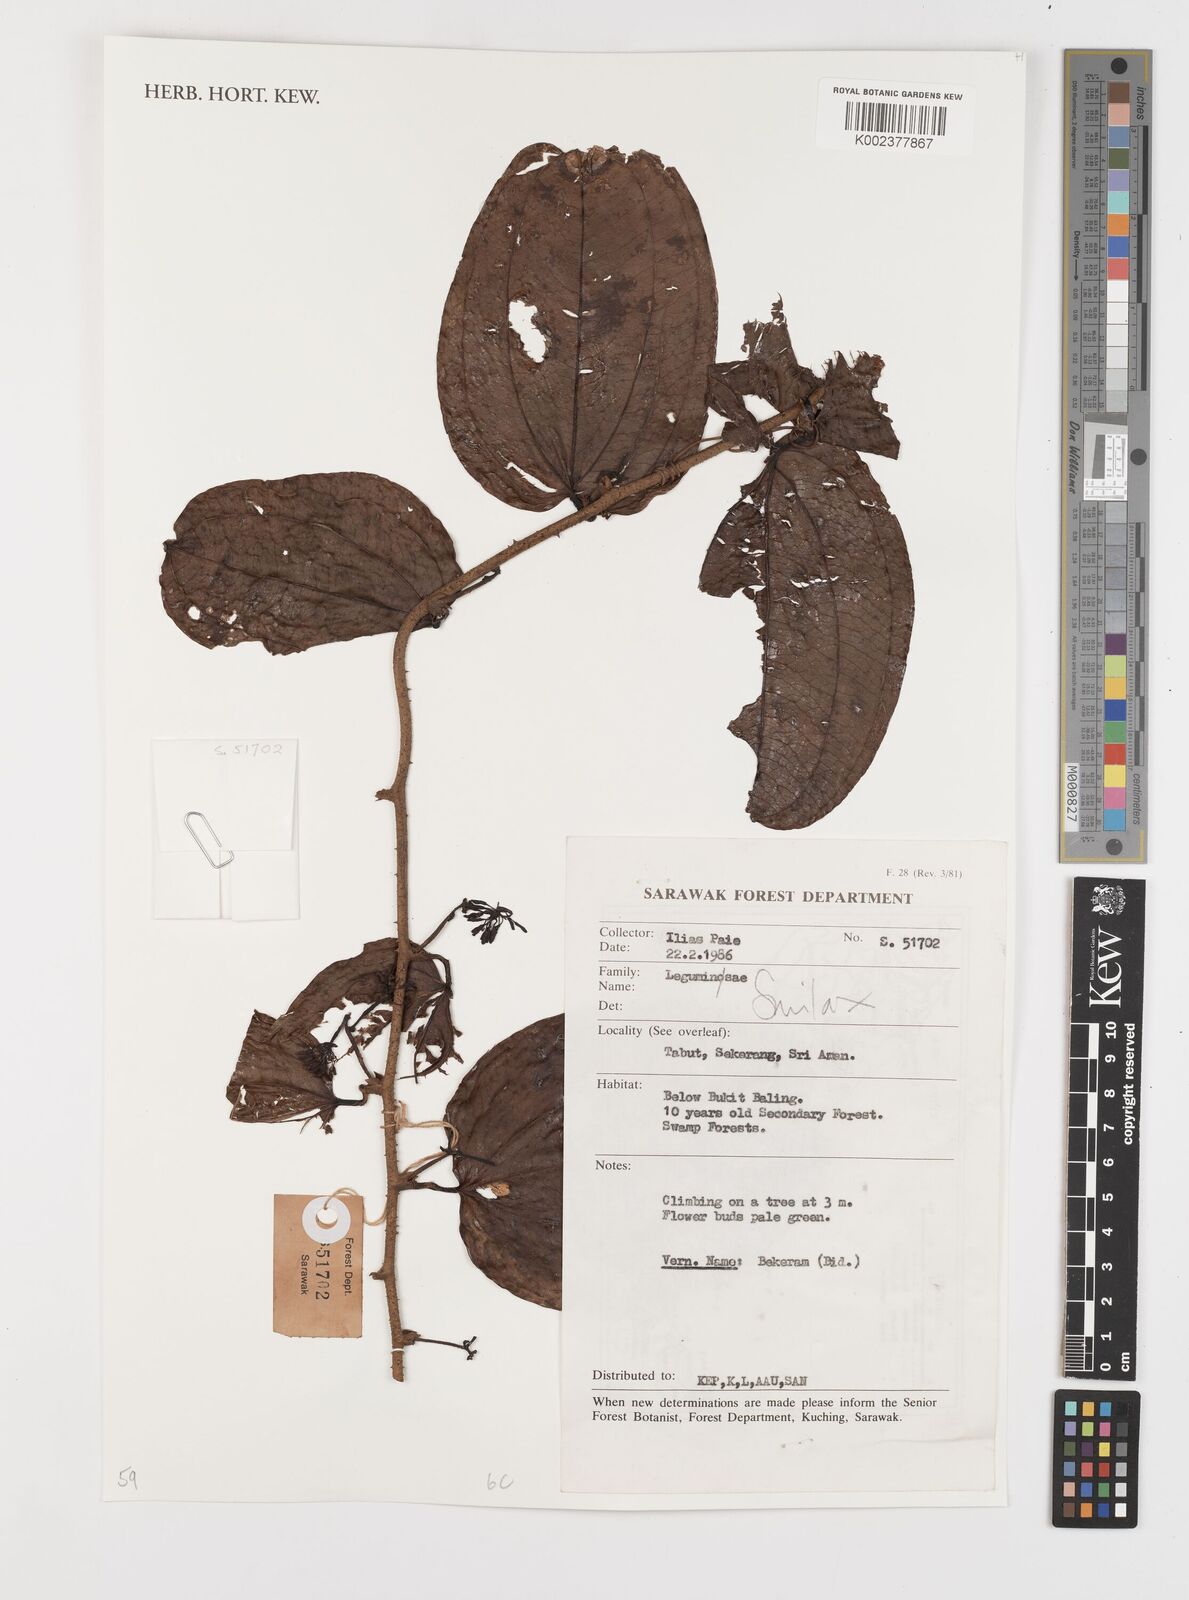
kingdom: Plantae
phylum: Tracheophyta
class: Liliopsida
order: Liliales
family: Smilacaceae
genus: Smilax
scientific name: Smilax
